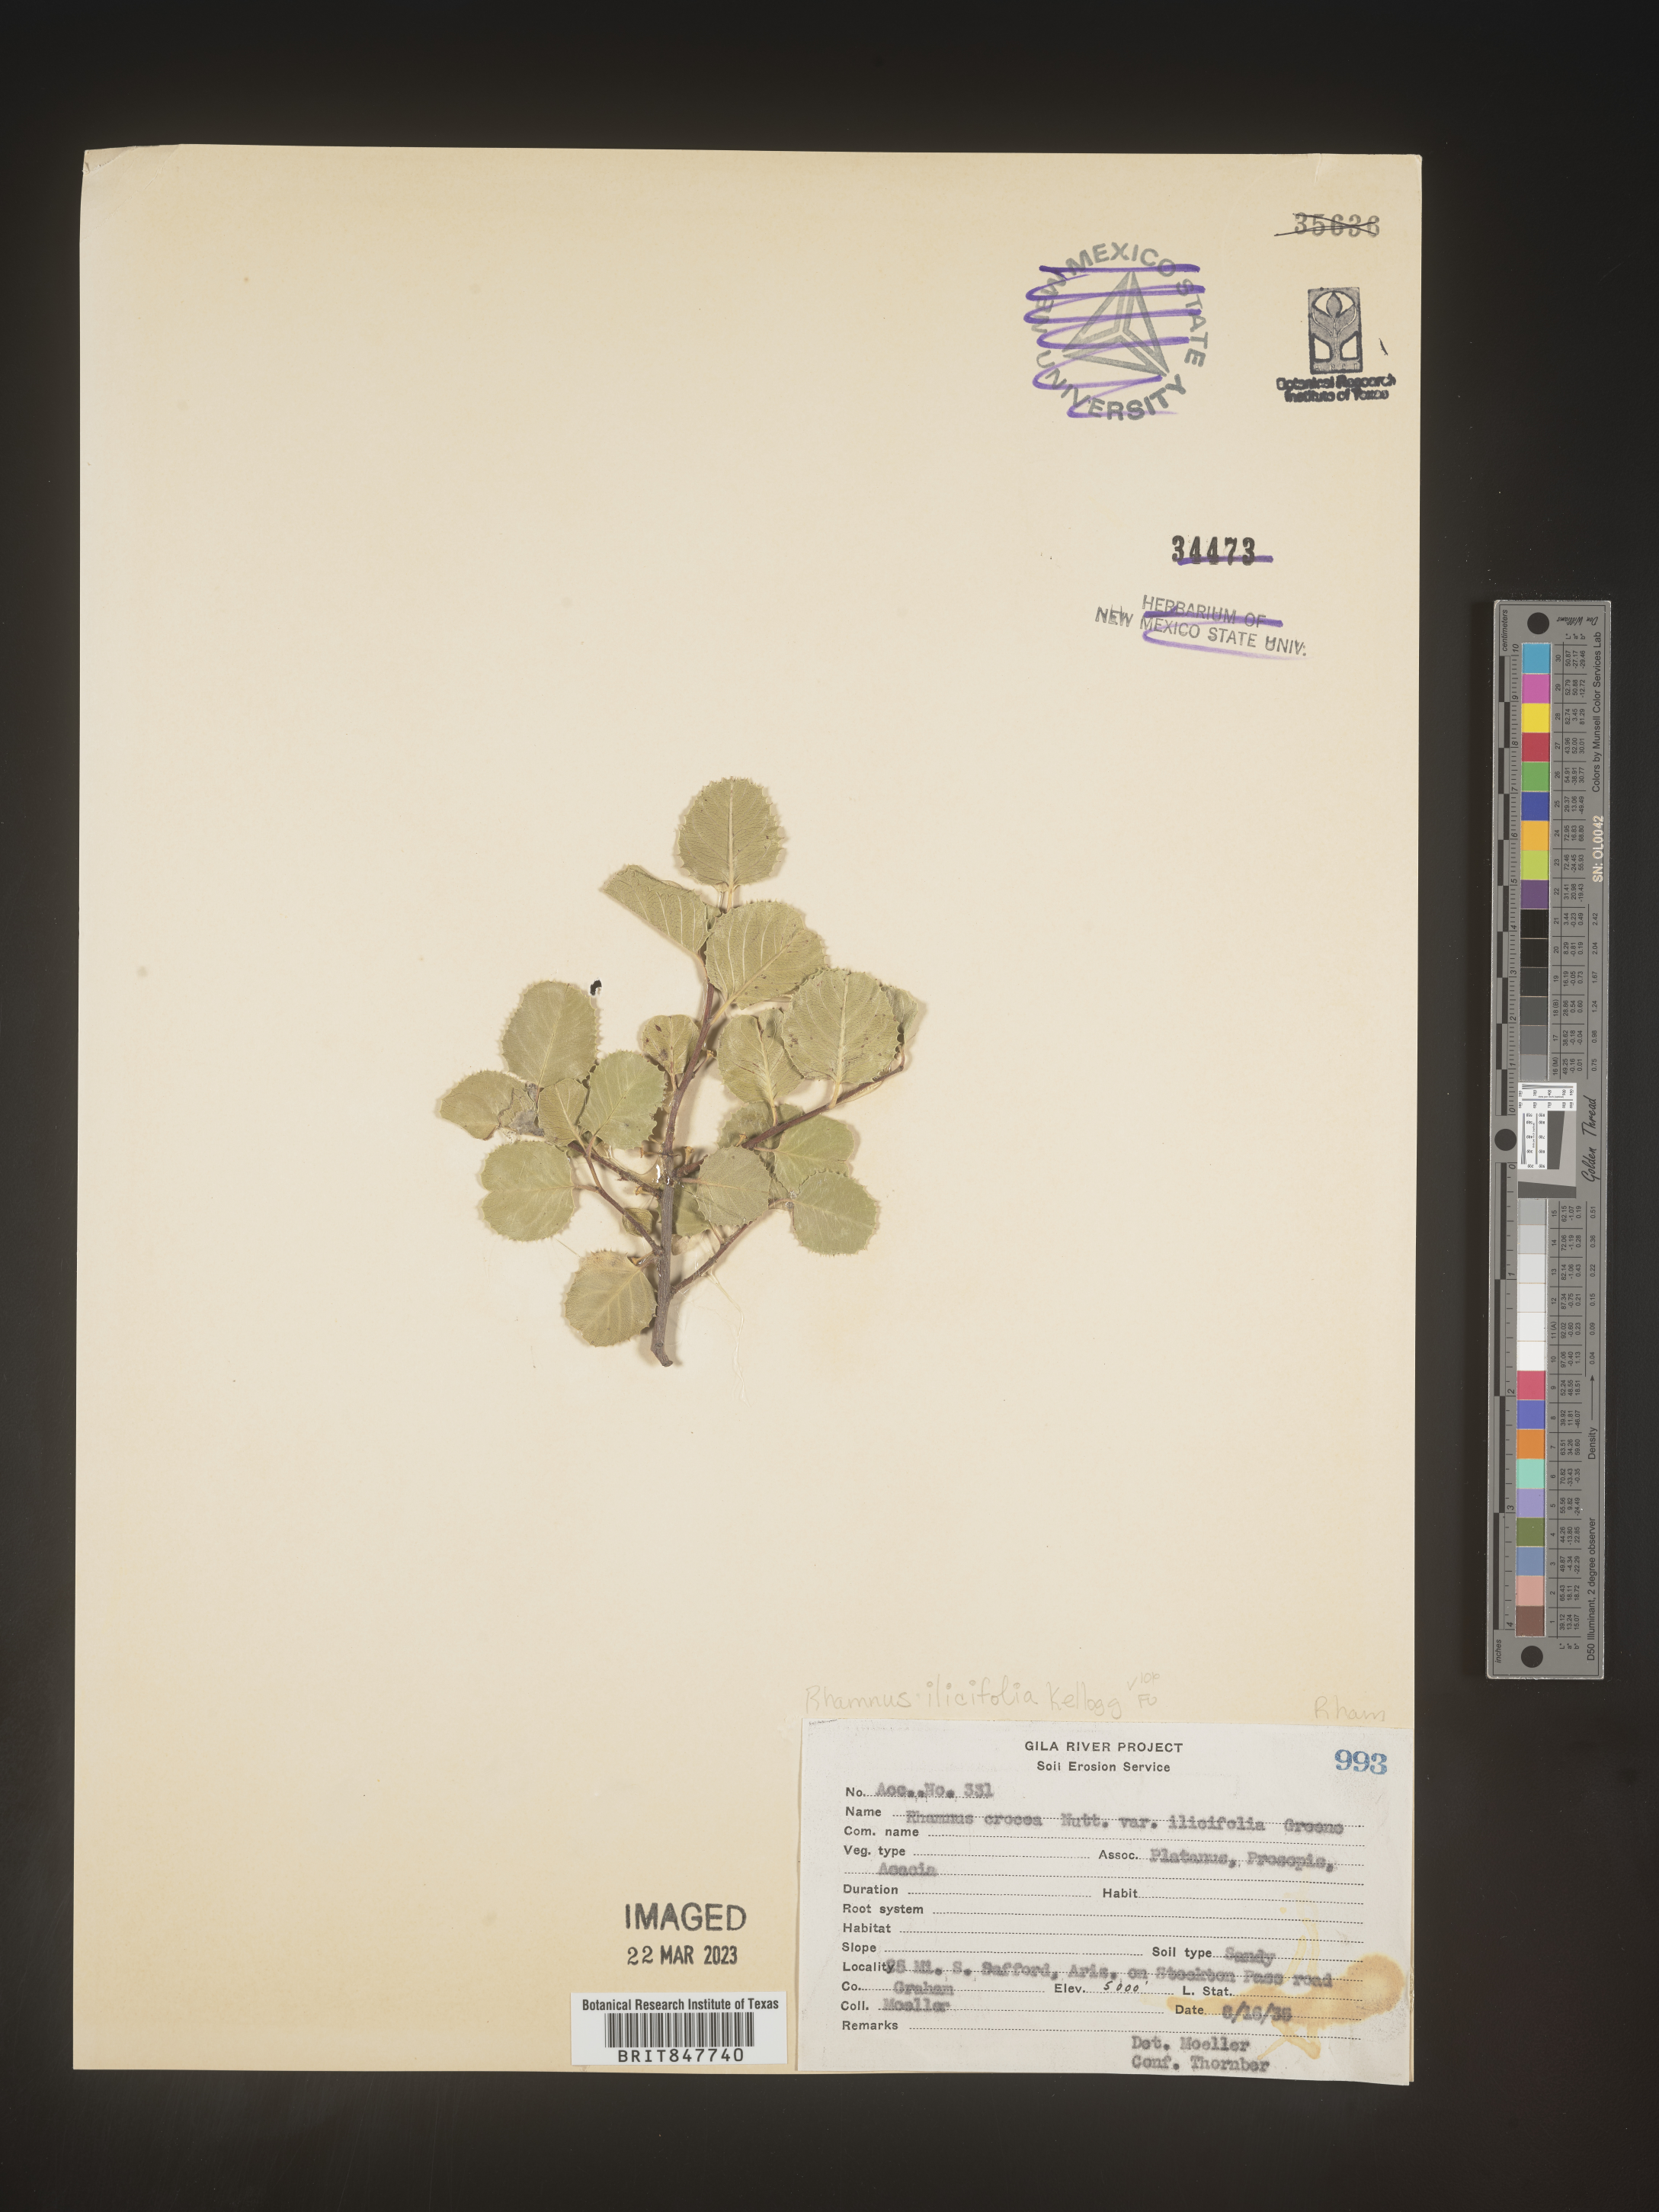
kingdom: Plantae
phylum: Tracheophyta
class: Magnoliopsida
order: Rosales
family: Rhamnaceae
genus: Endotropis
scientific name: Endotropis crocea
